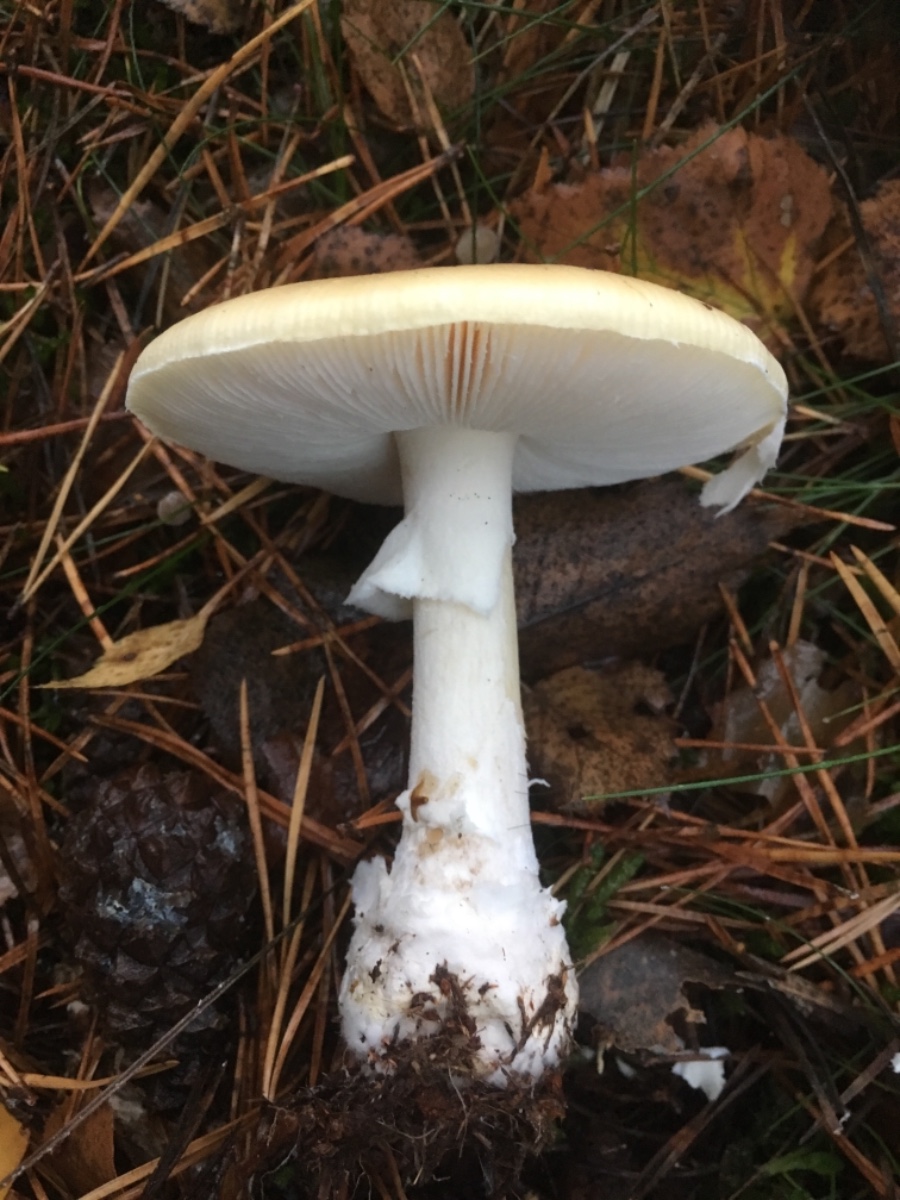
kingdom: Fungi
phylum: Basidiomycota
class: Agaricomycetes
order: Agaricales
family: Amanitaceae
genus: Amanita
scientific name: Amanita gemmata
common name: okkergul fluesvamp
